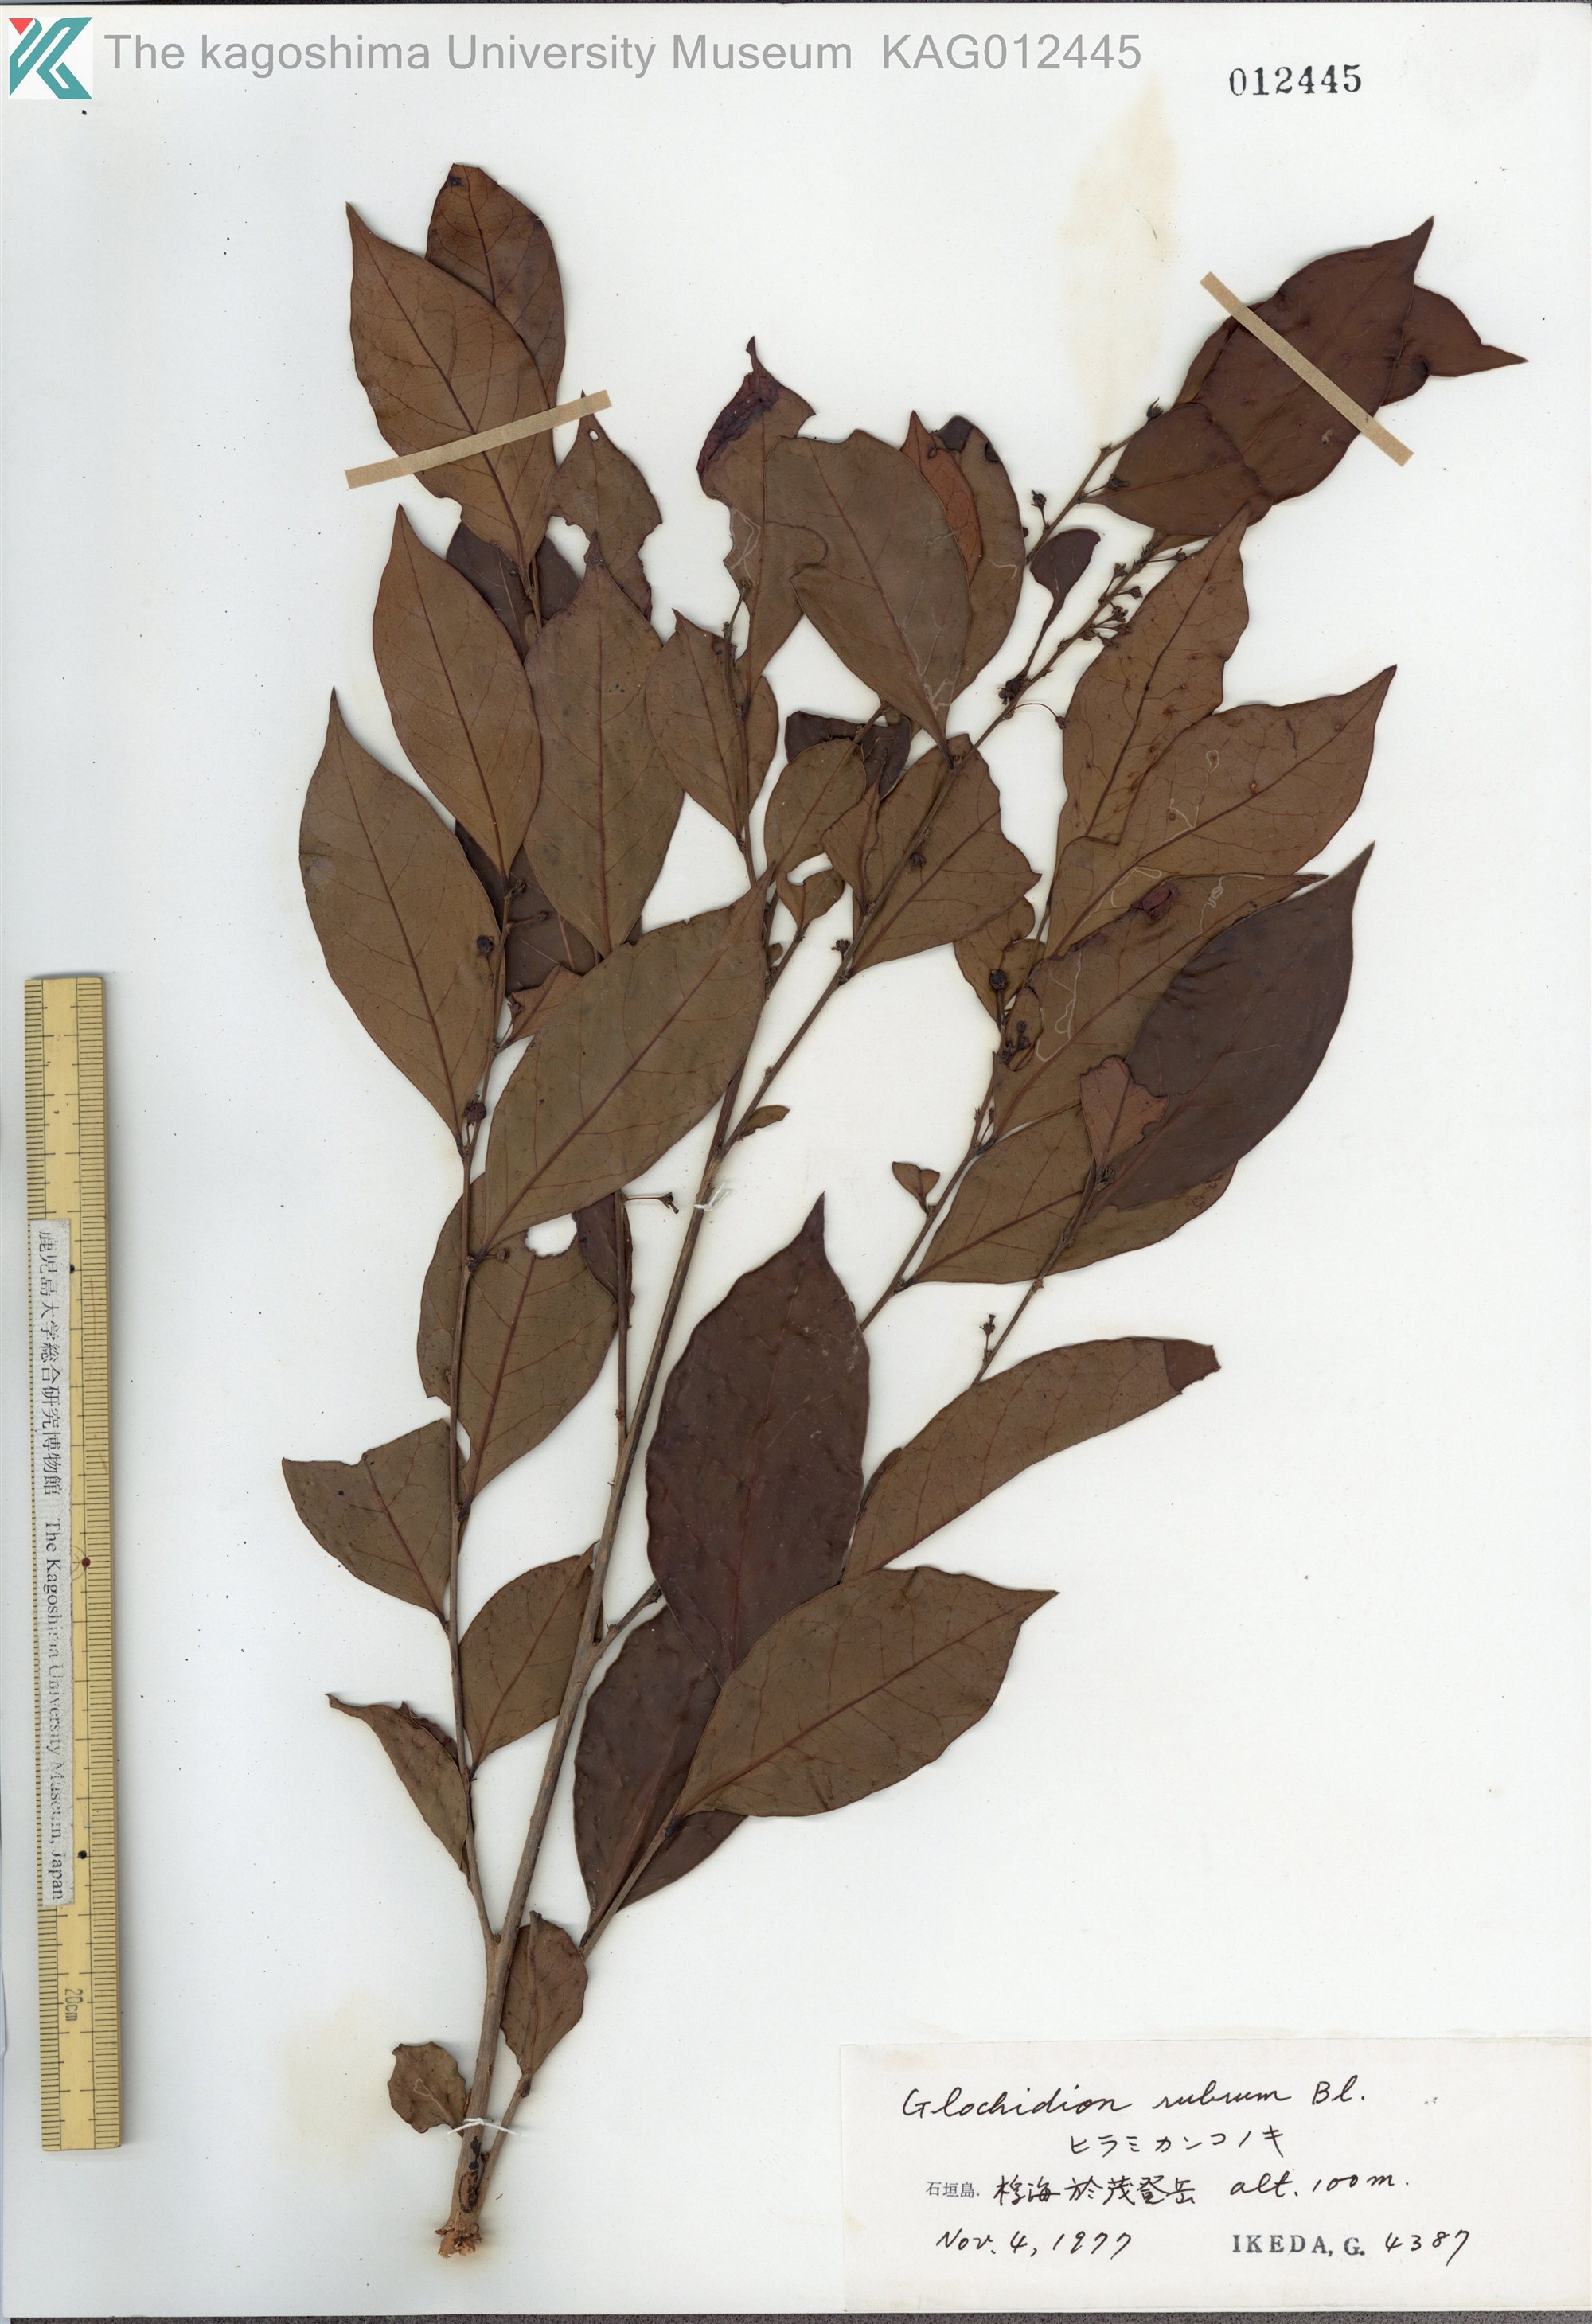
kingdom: Plantae
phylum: Tracheophyta
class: Magnoliopsida
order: Malpighiales
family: Phyllanthaceae
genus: Glochidion
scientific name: Glochidion rubrum
